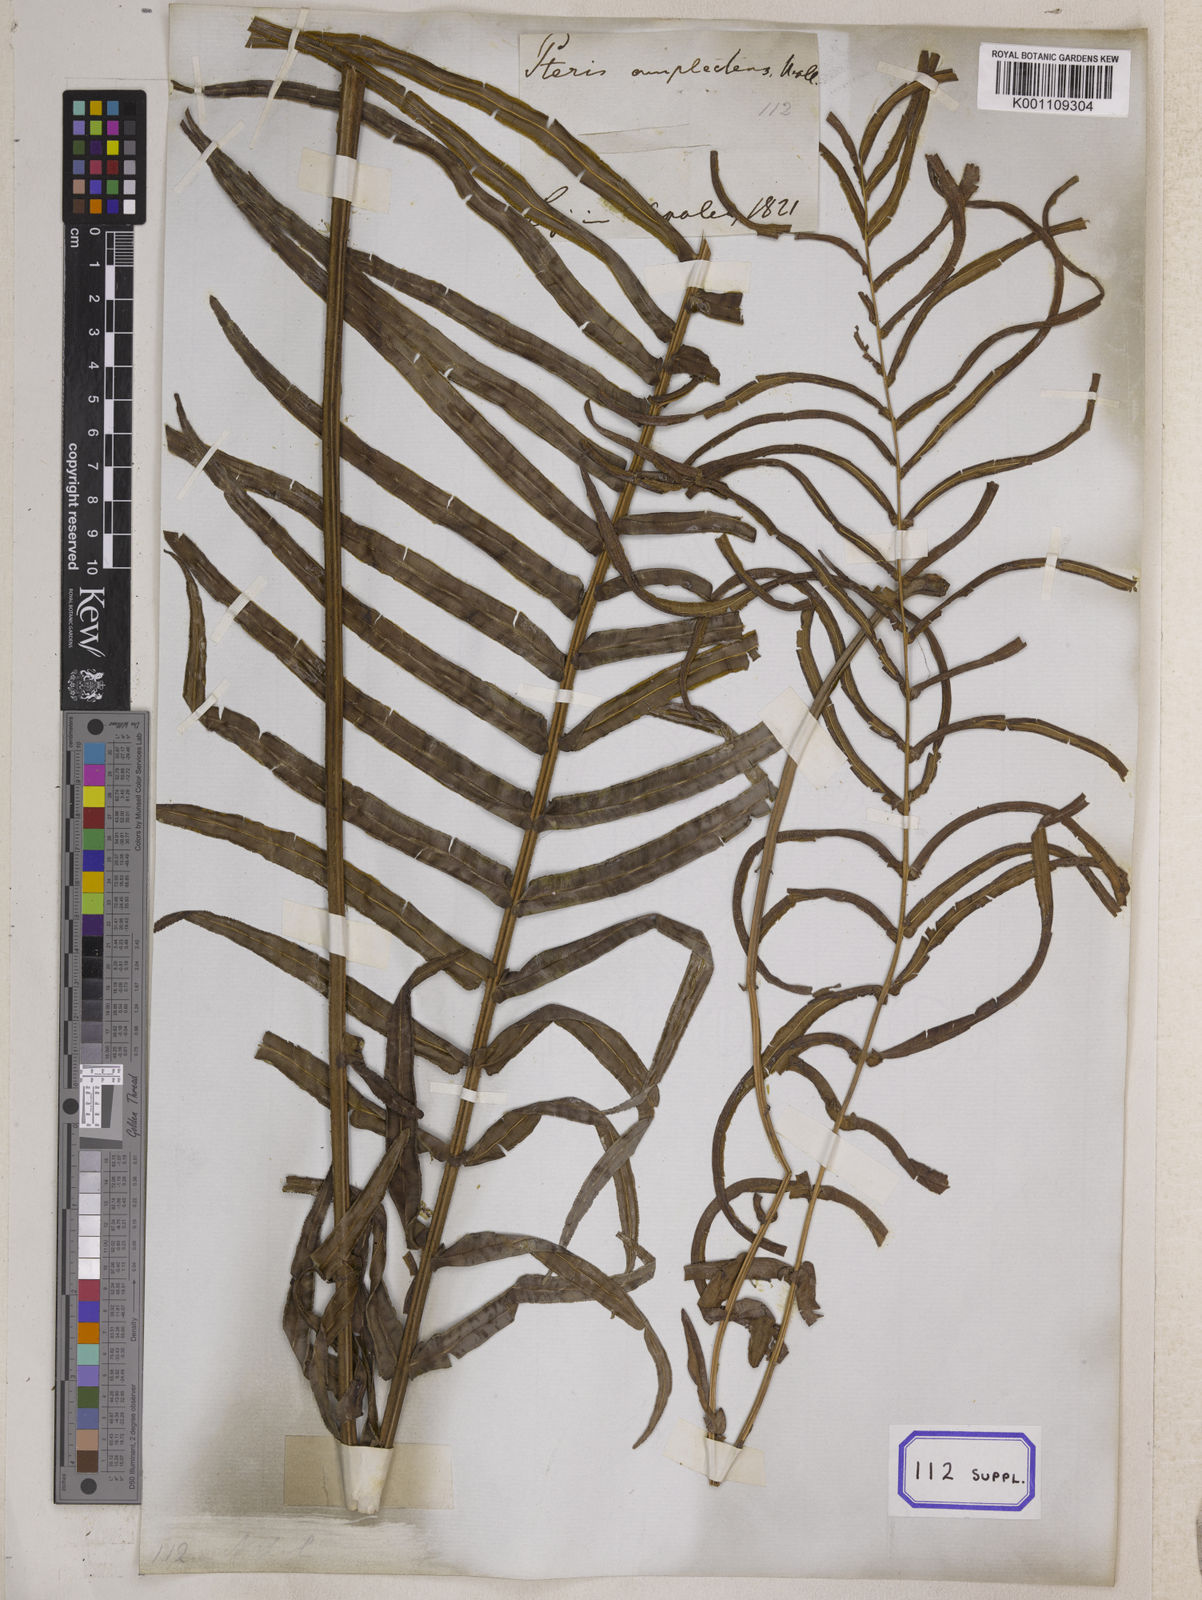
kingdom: Plantae
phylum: Tracheophyta
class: Polypodiopsida
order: Polypodiales
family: Pteridaceae
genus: Pteris
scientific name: Pteris vittata
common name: Ladder brake
